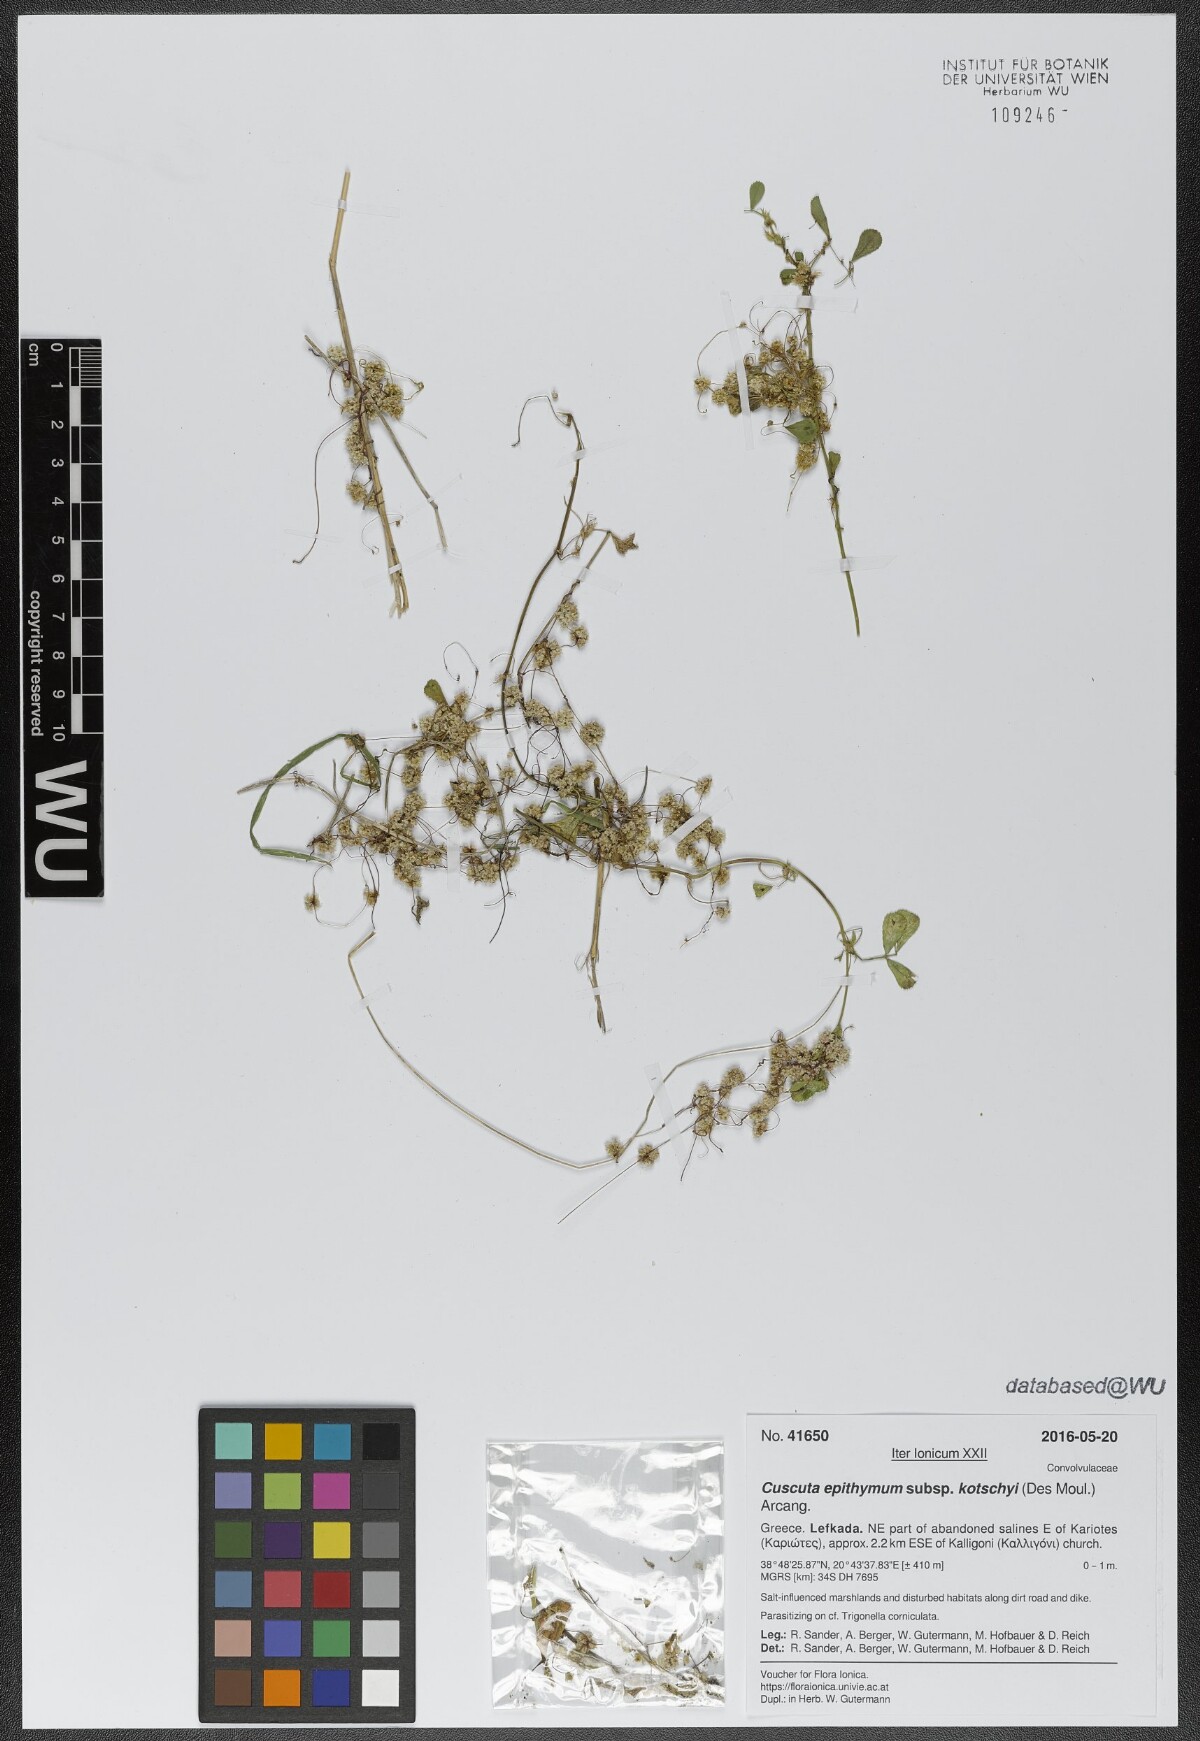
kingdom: Plantae
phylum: Tracheophyta
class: Magnoliopsida
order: Solanales
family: Convolvulaceae
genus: Cuscuta
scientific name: Cuscuta epithymum
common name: Clover dodder
